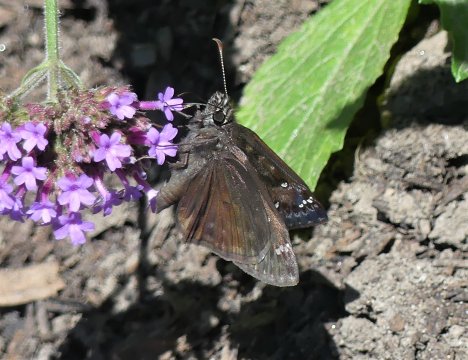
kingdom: Animalia
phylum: Arthropoda
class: Insecta
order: Lepidoptera
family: Hesperiidae
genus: Gesta
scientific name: Gesta
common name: Horace's Duskywing
